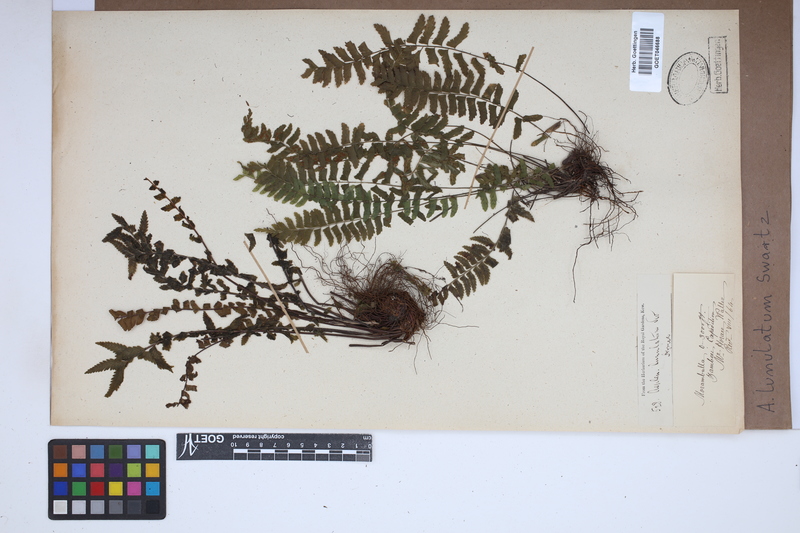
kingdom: Plantae
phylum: Tracheophyta
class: Polypodiopsida
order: Polypodiales
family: Aspleniaceae
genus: Asplenium
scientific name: Asplenium lunulatum
